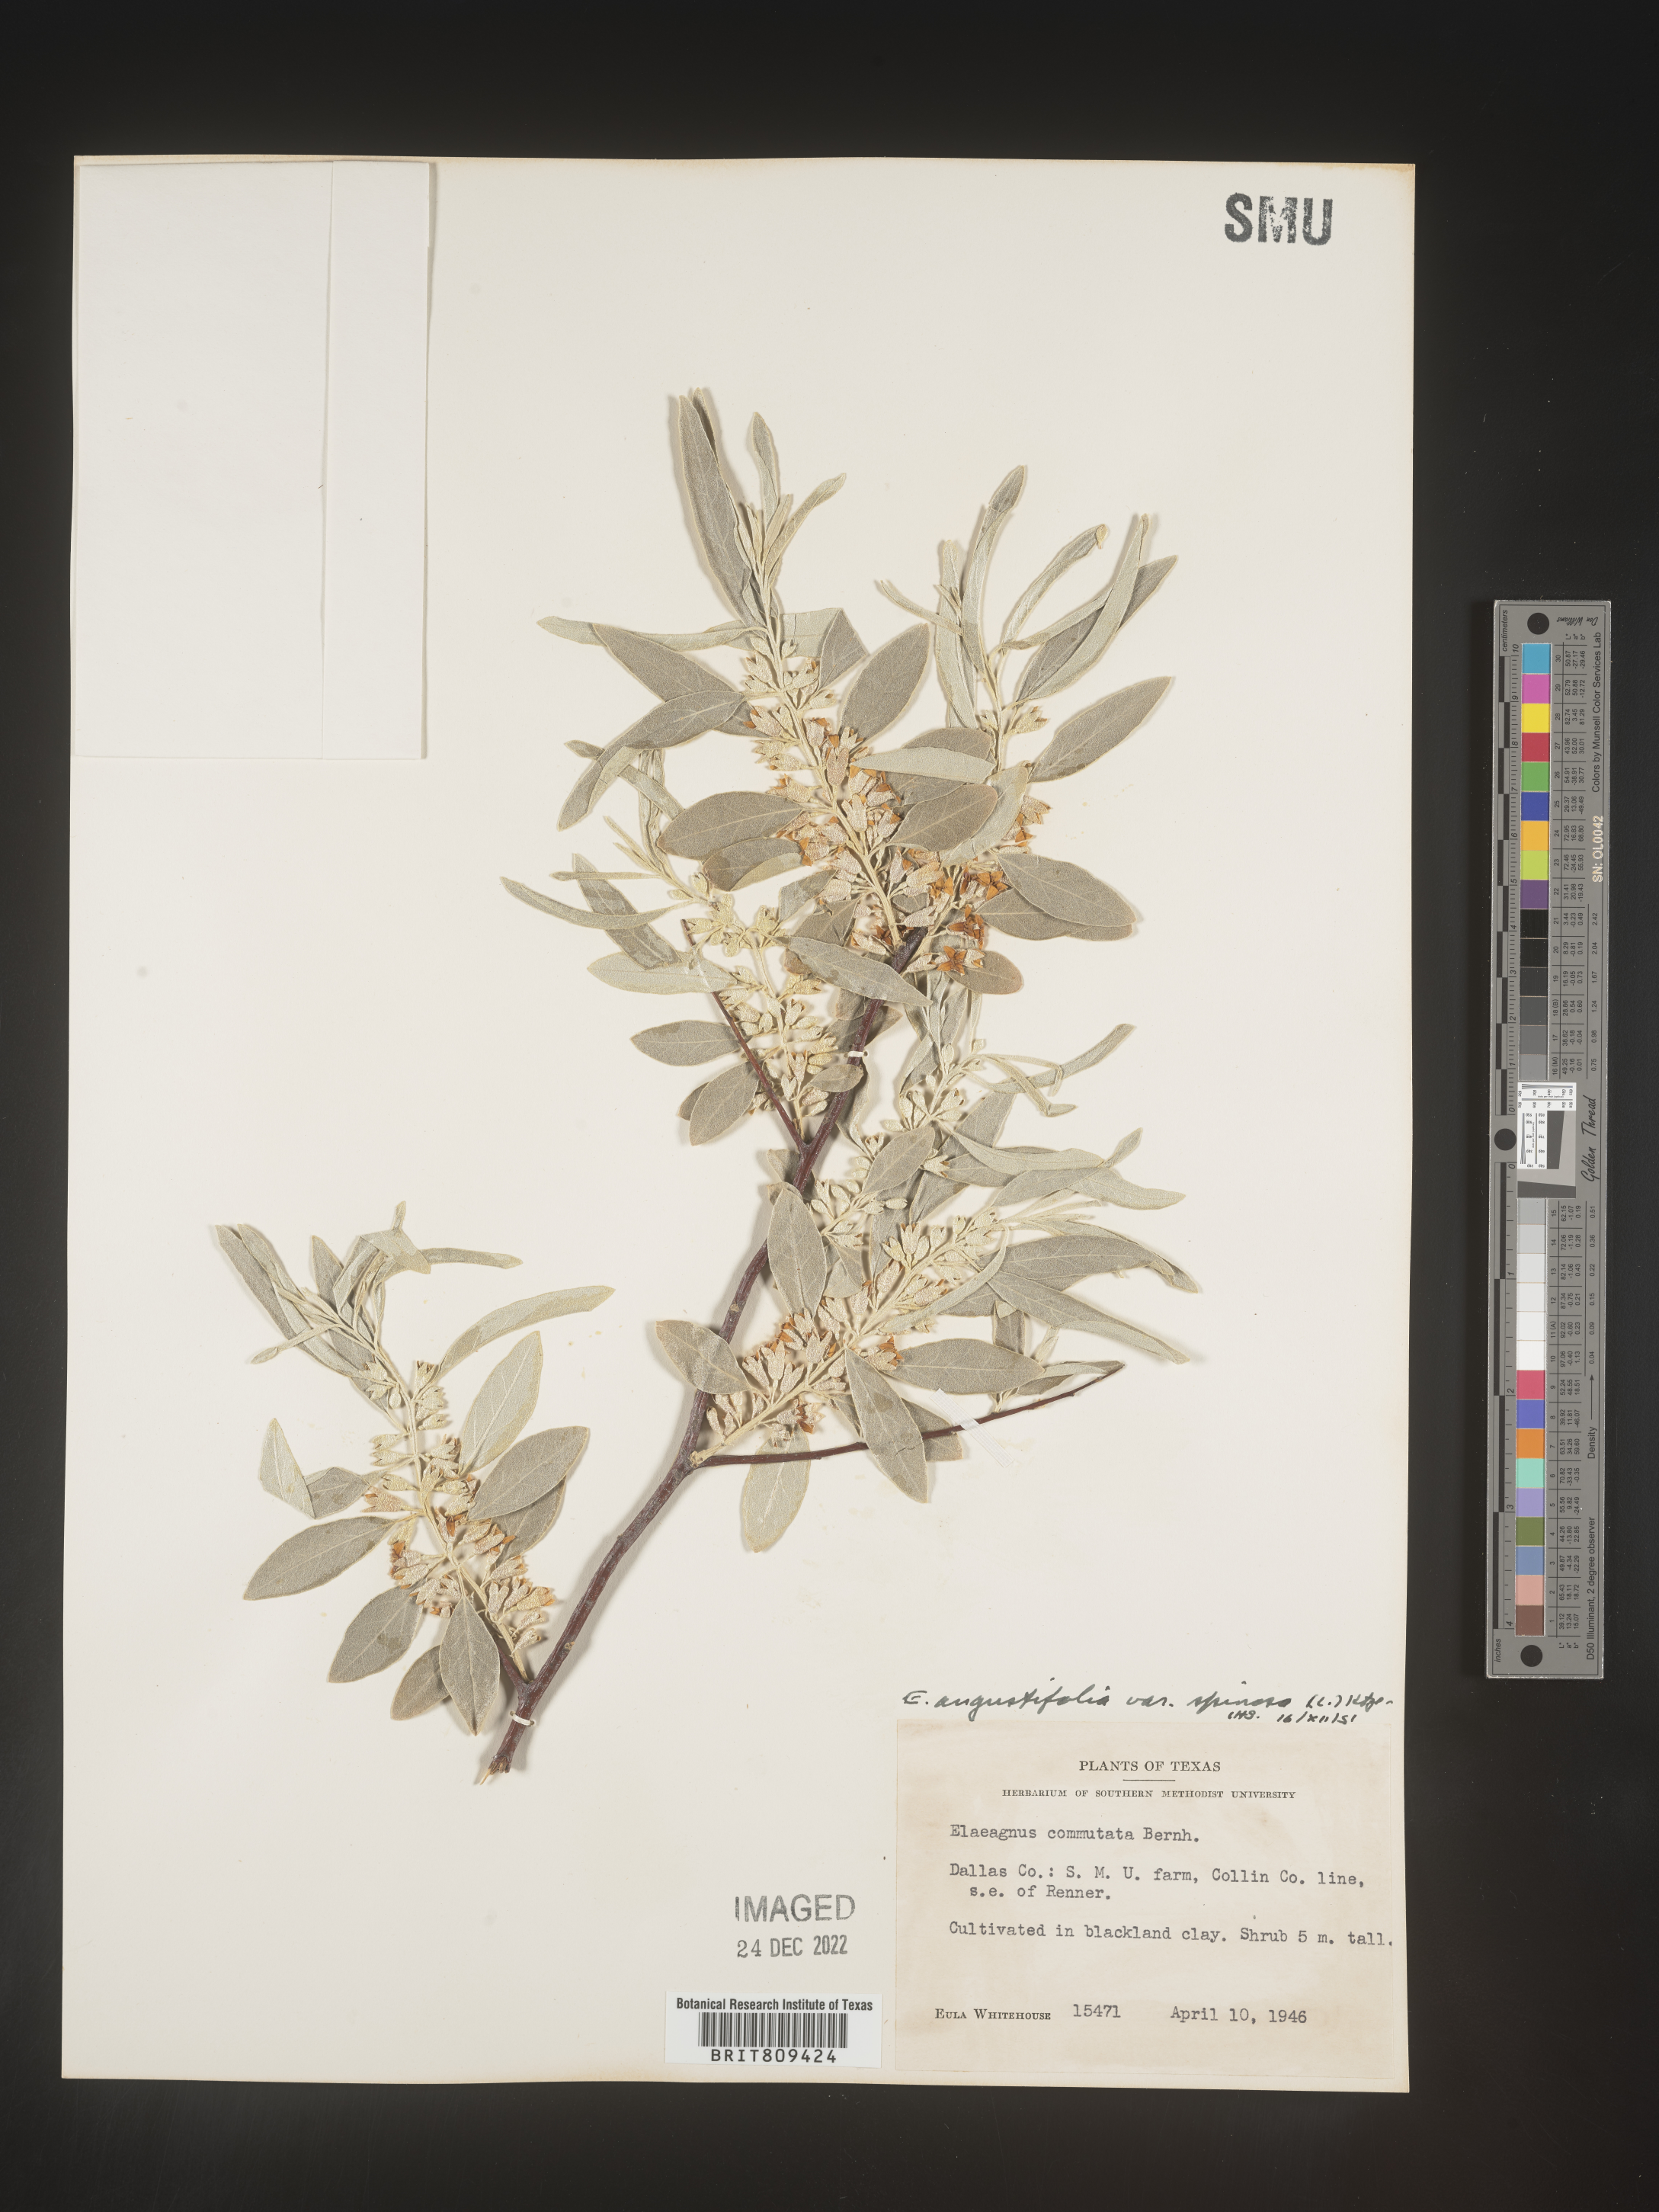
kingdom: Plantae
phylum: Tracheophyta
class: Magnoliopsida
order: Rosales
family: Elaeagnaceae
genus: Elaeagnus
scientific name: Elaeagnus
